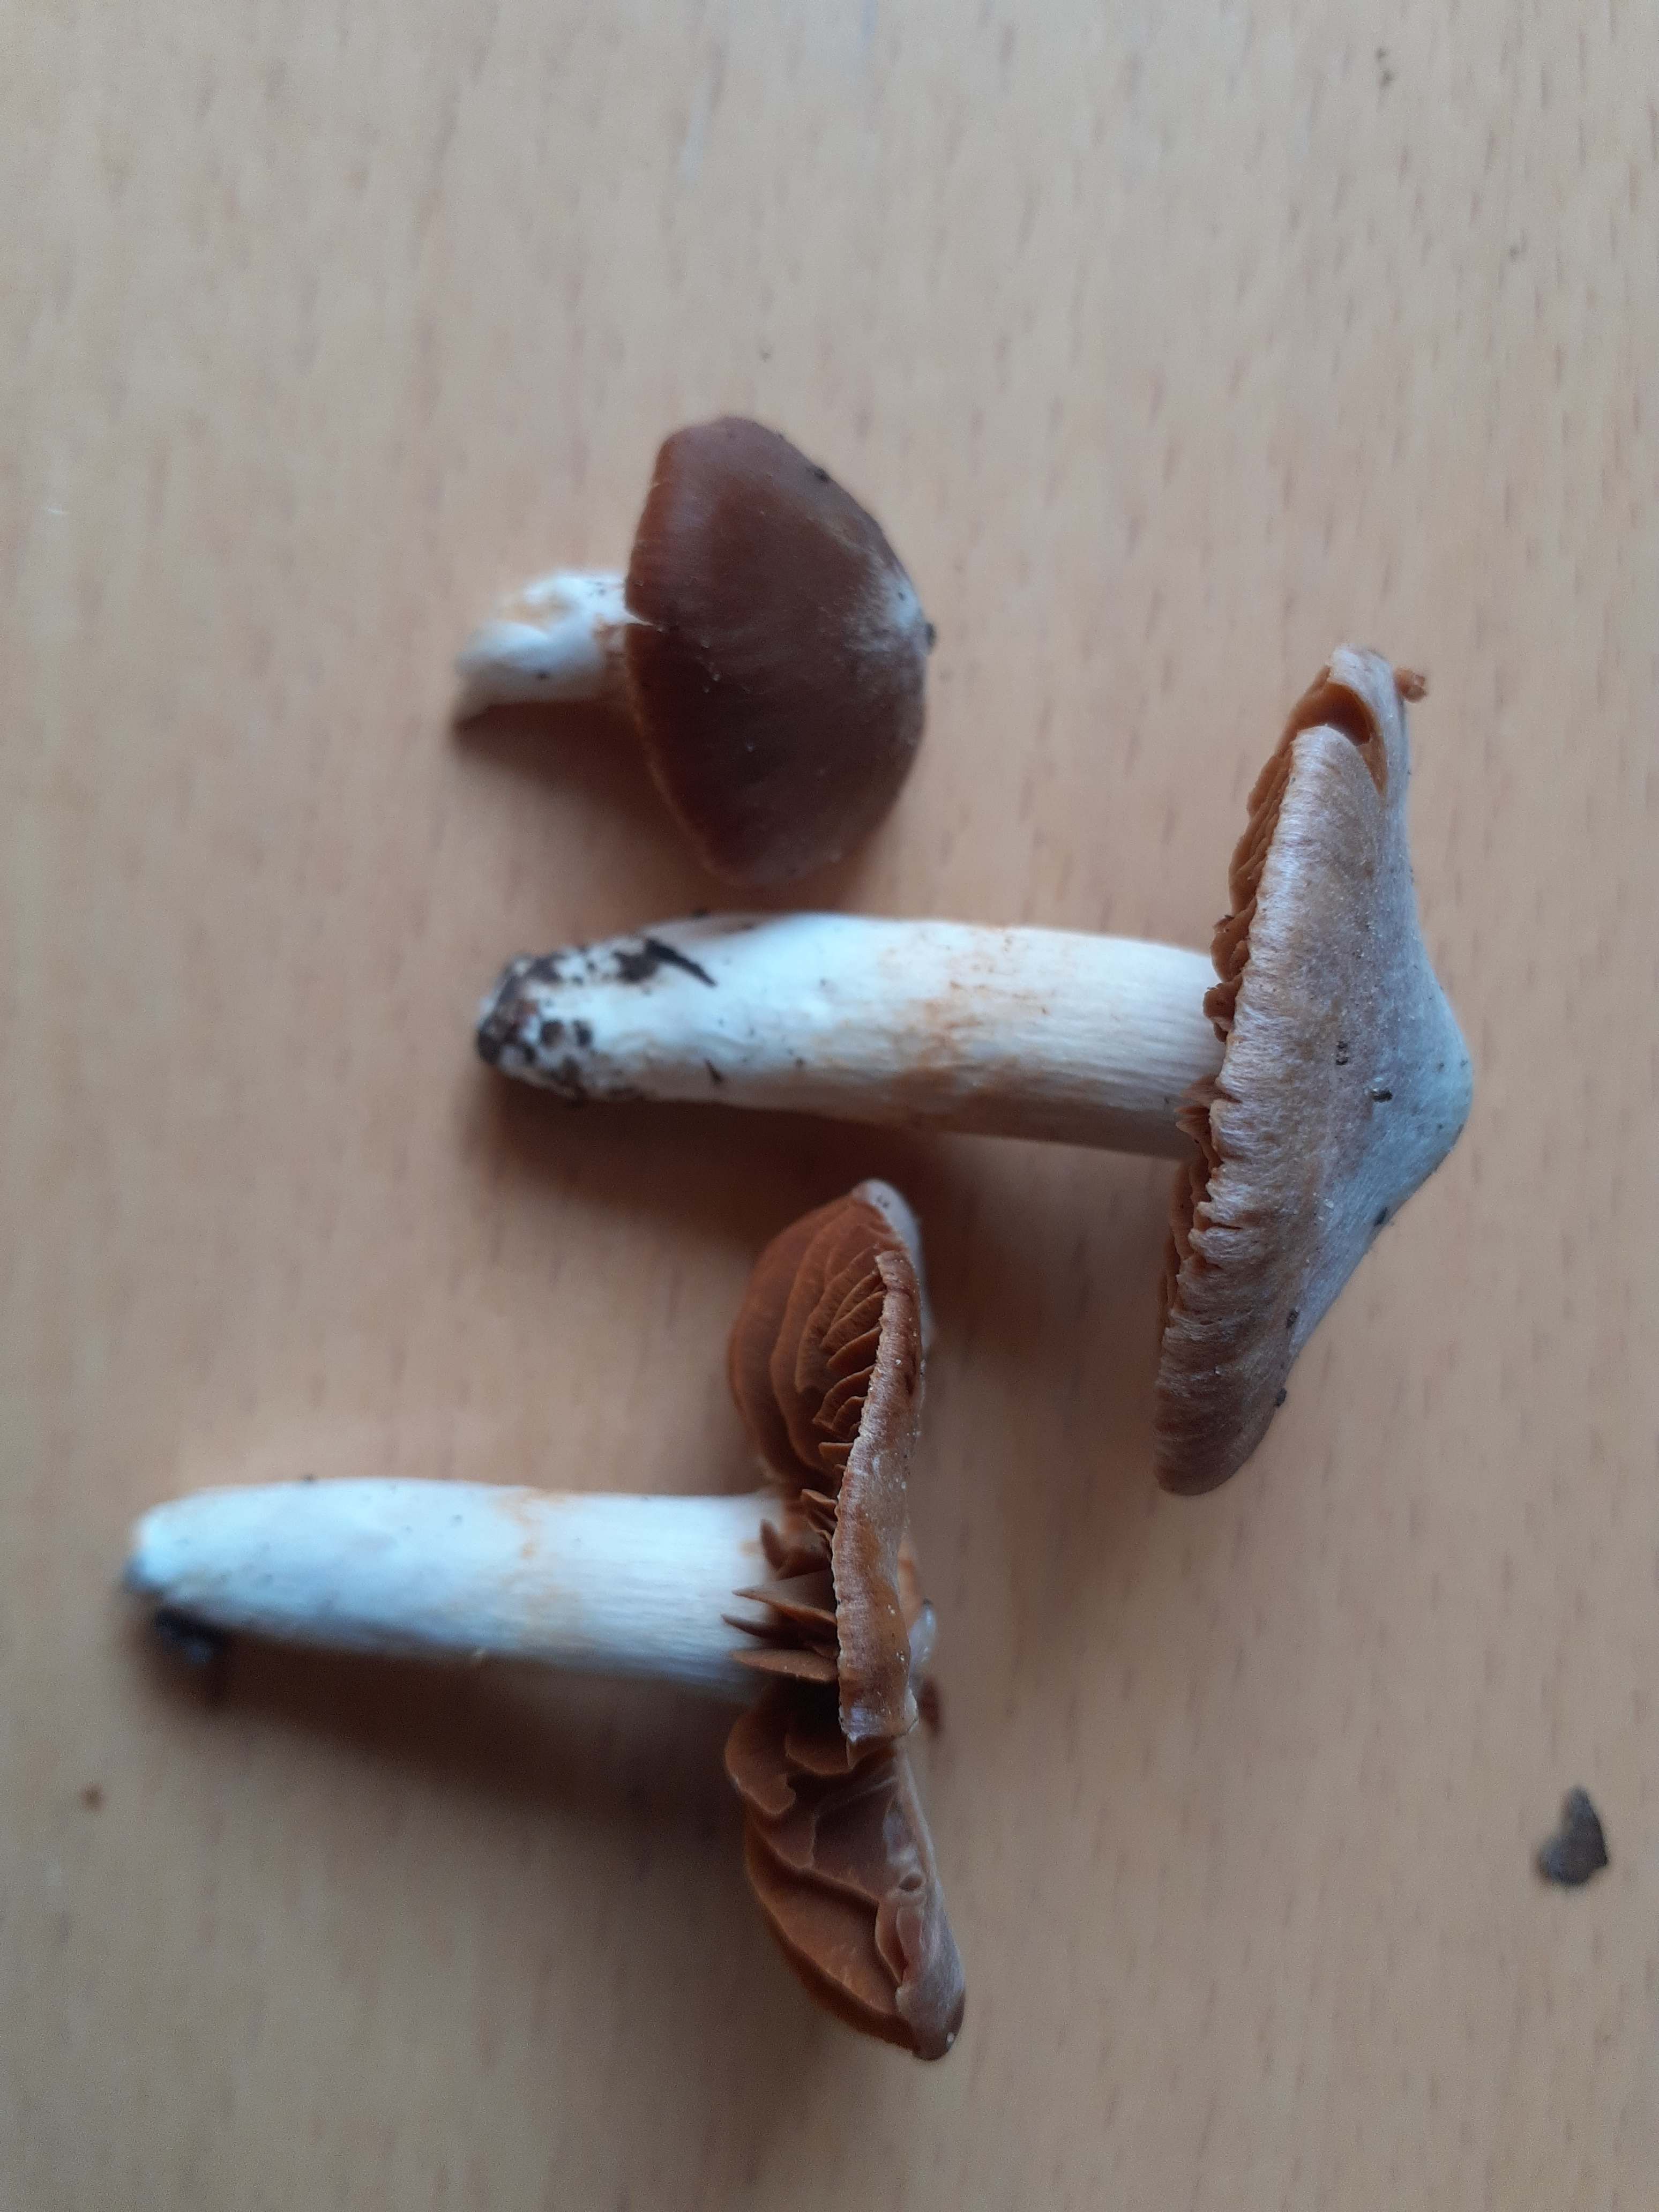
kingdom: Fungi
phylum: Basidiomycota
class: Agaricomycetes
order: Agaricales
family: Cortinariaceae
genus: Cortinarius
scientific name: Cortinarius acetosus
